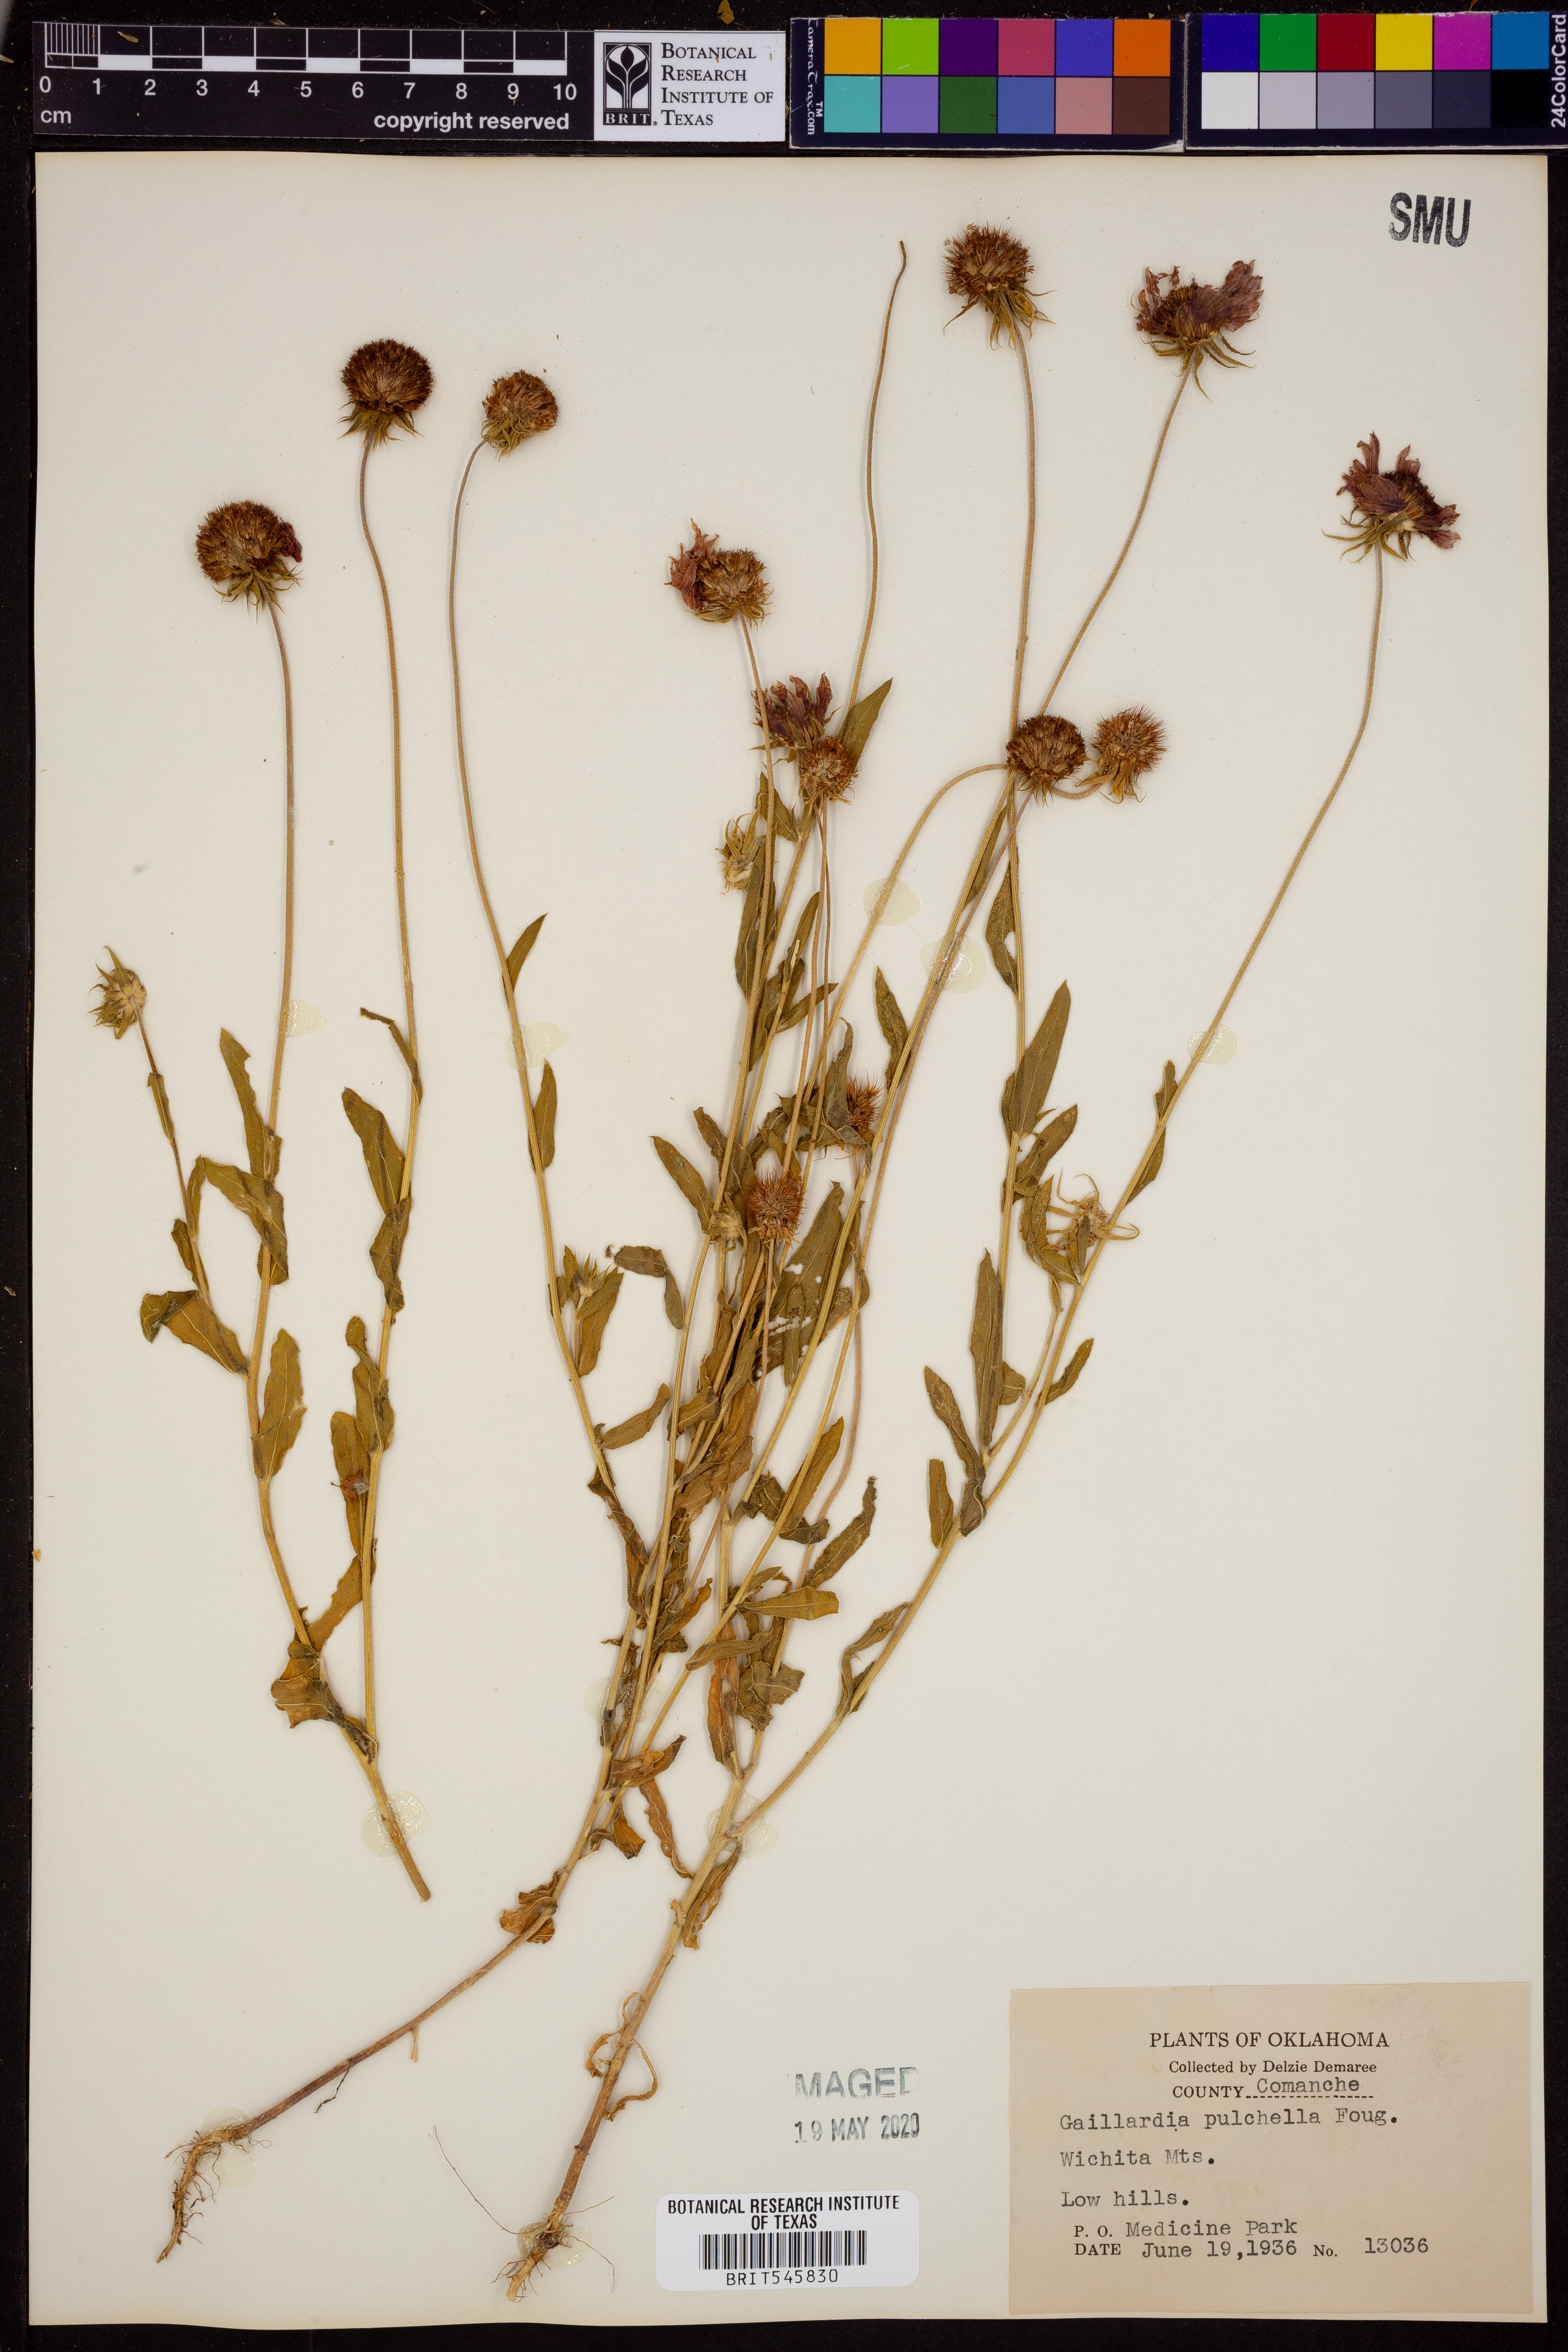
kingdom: Plantae
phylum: Tracheophyta
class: Magnoliopsida
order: Asterales
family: Asteraceae
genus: Gaillardia
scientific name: Gaillardia pulchella
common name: Firewheel
